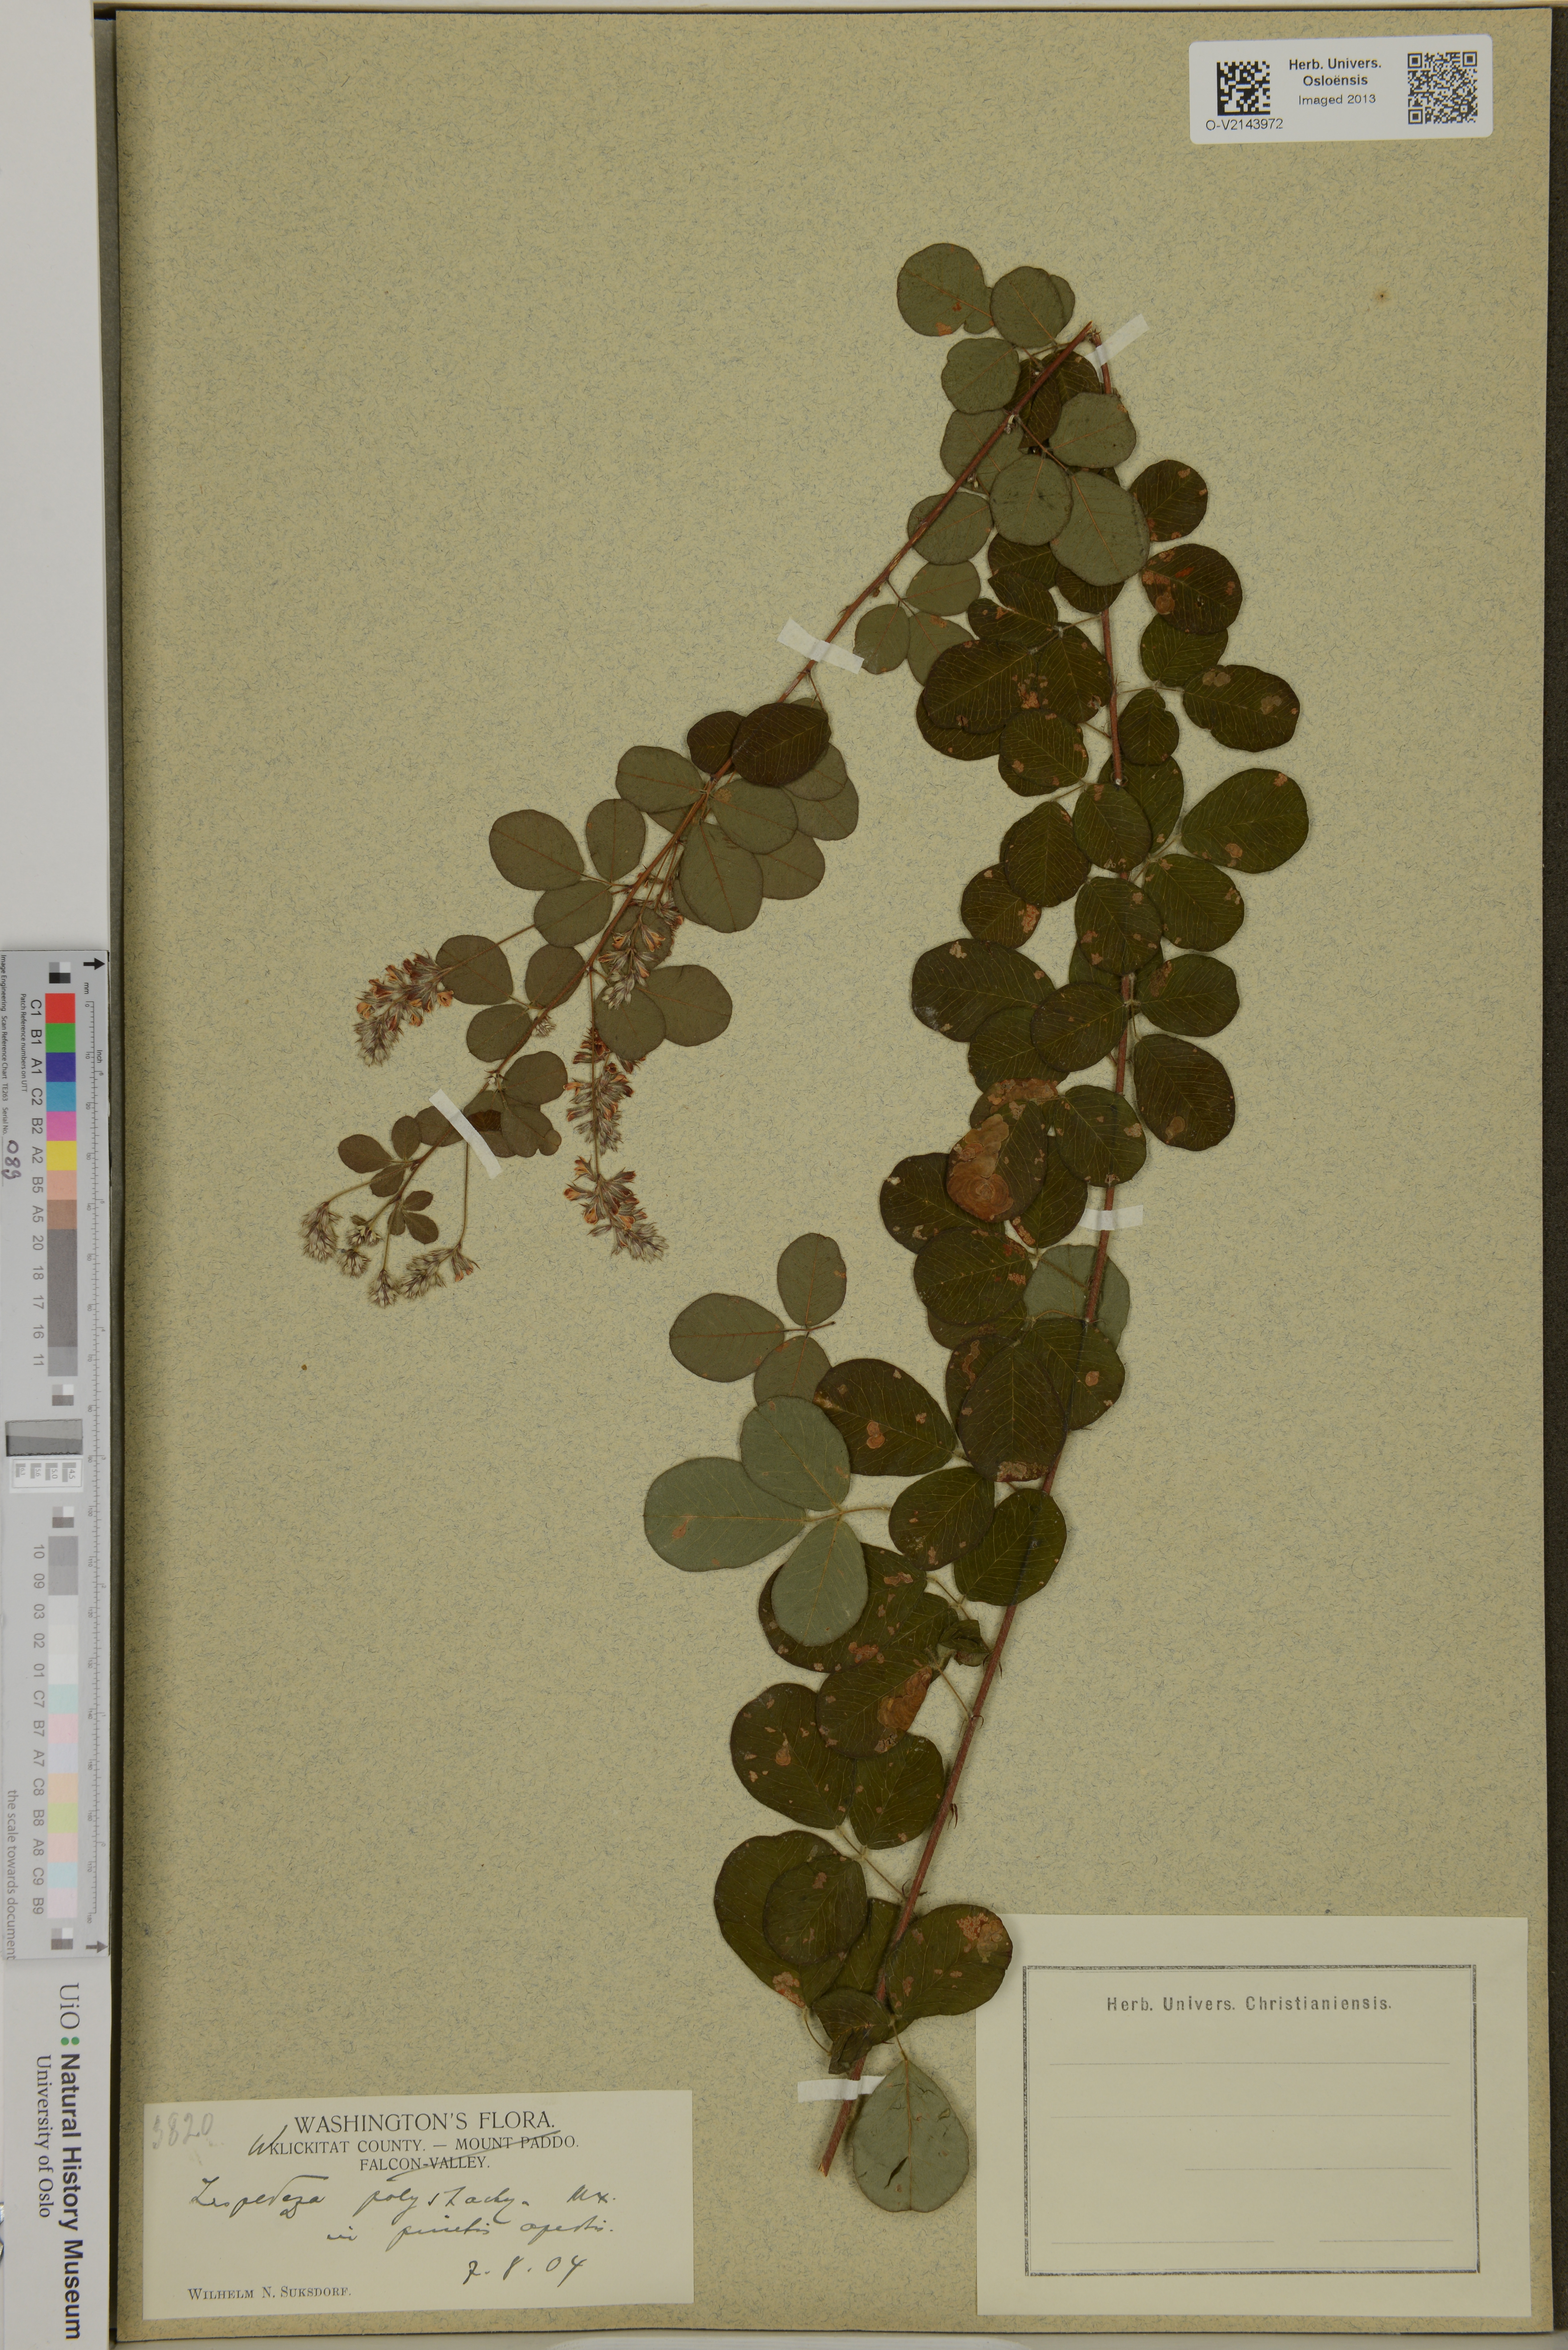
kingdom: Plantae
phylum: Tracheophyta
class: Magnoliopsida
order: Fabales
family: Fabaceae
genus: Lespedeza
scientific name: Lespedeza hirta
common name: Hairy lespedeza
